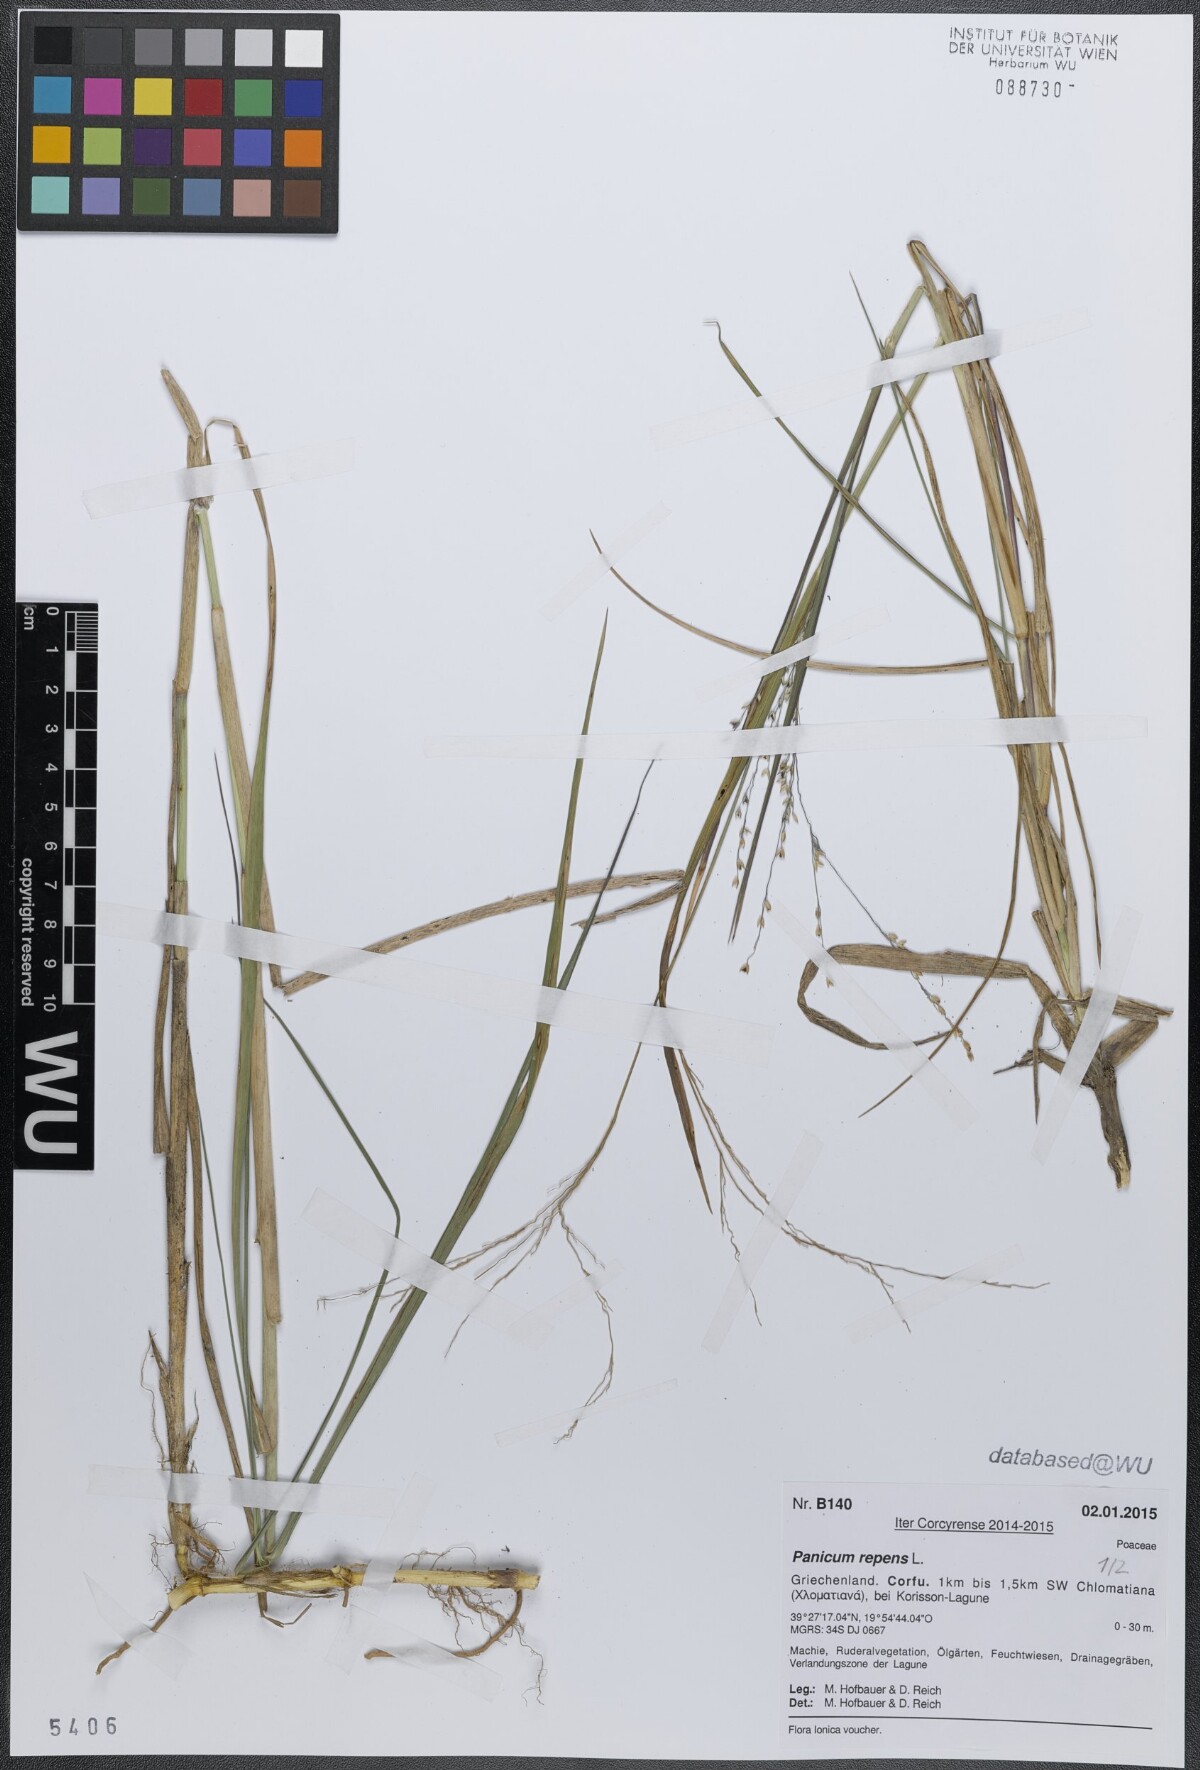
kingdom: Plantae
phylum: Tracheophyta
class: Liliopsida
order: Poales
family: Poaceae
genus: Panicum
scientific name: Panicum repens
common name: Torpedo grass
